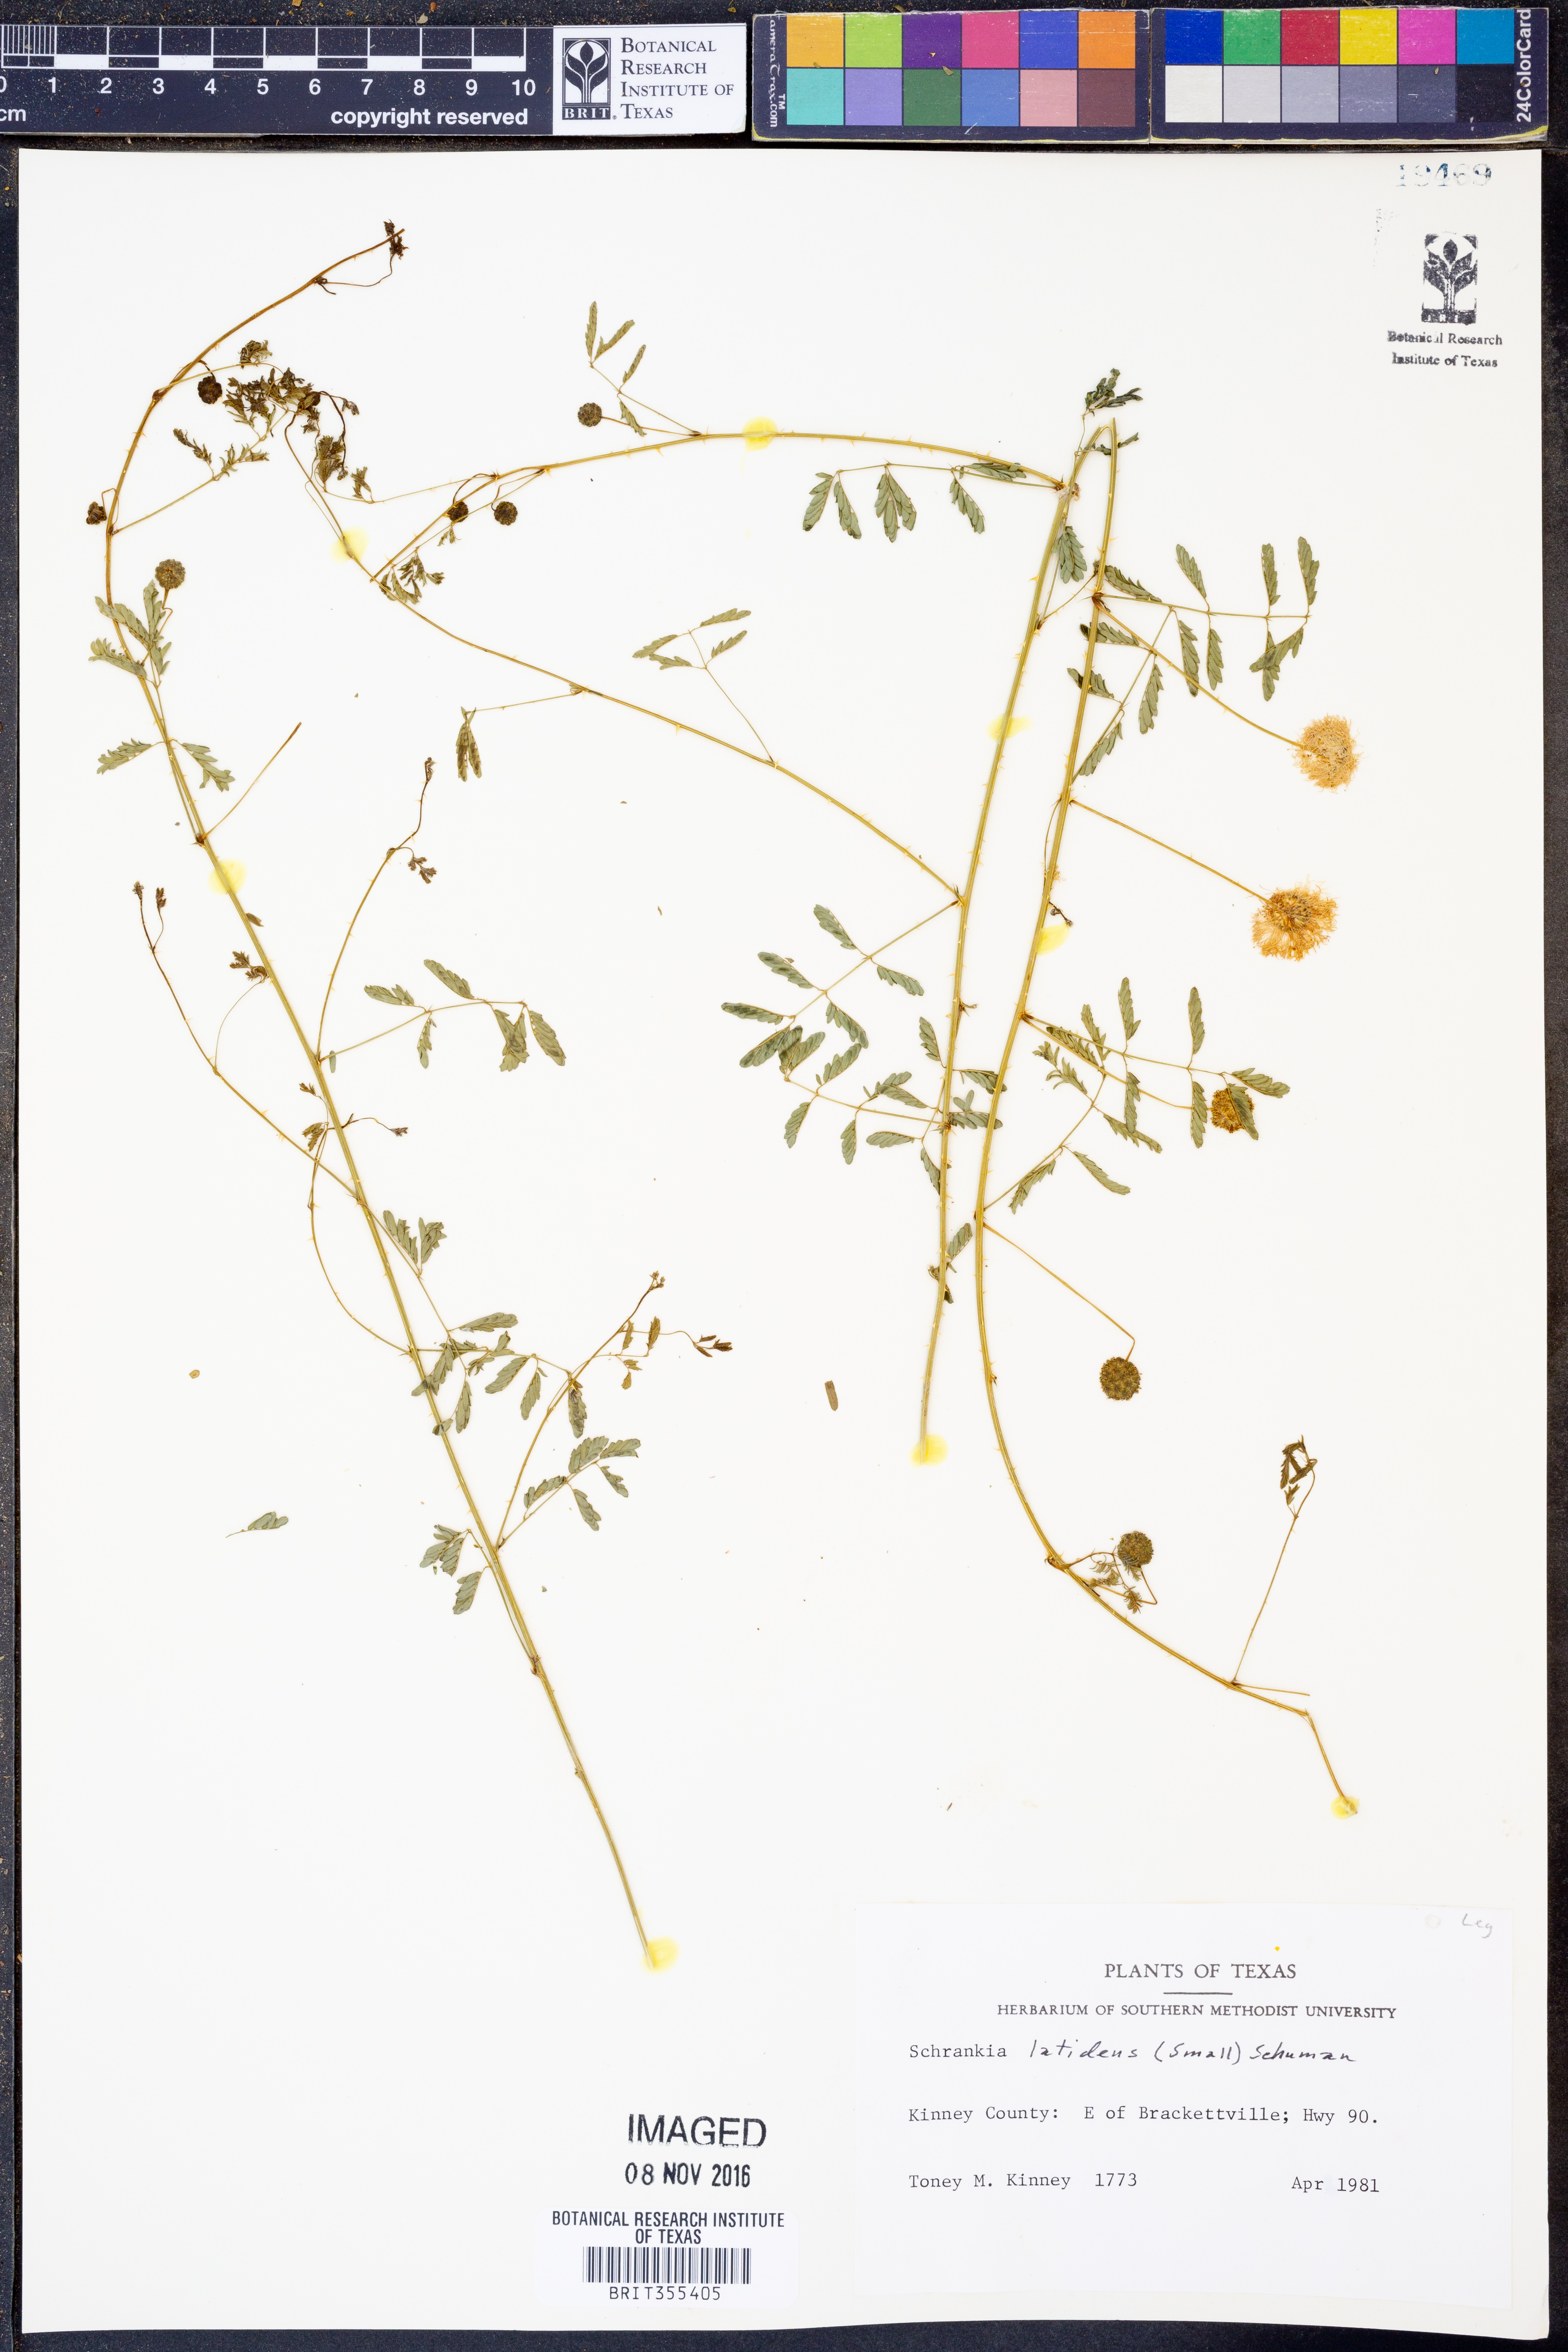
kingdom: Plantae
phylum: Tracheophyta
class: Magnoliopsida
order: Fabales
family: Fabaceae
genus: Mimosa
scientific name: Mimosa quadrivalvis
